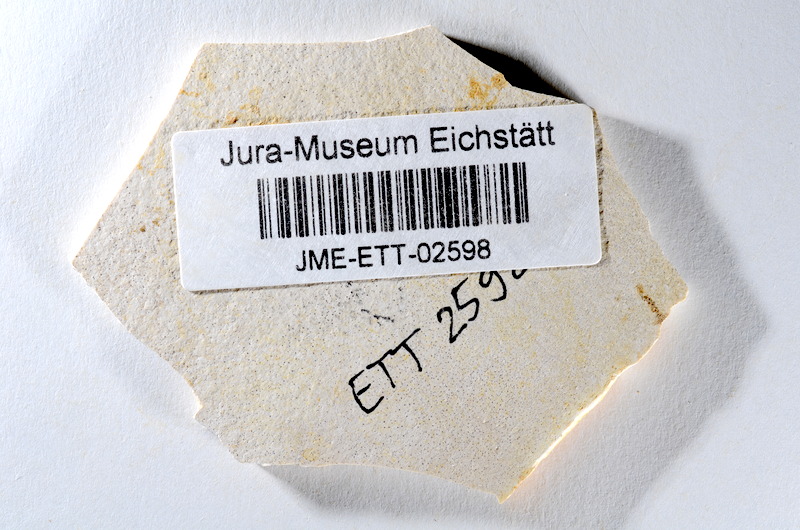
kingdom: Animalia
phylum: Chordata
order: Salmoniformes
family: Orthogonikleithridae
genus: Orthogonikleithrus
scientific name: Orthogonikleithrus hoelli
